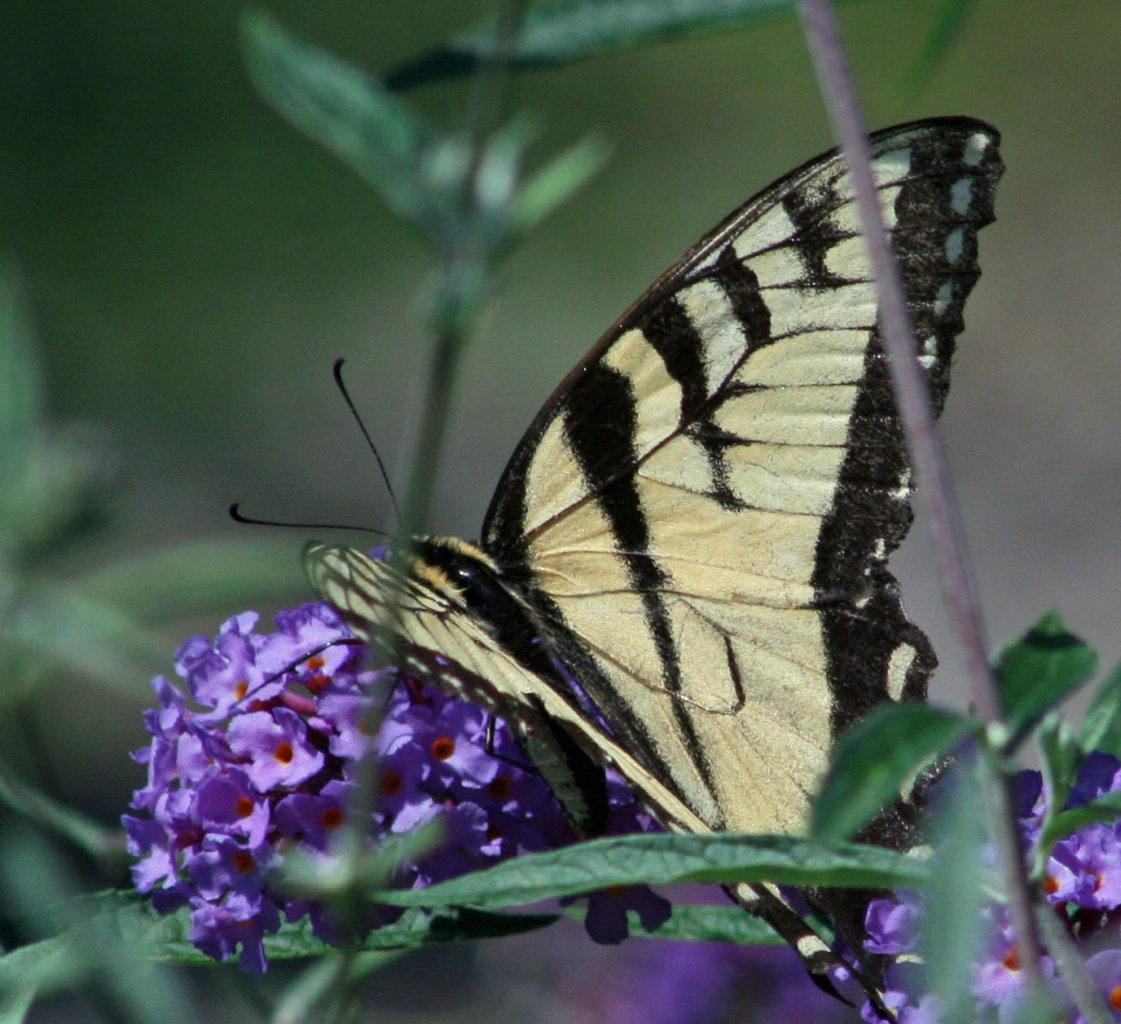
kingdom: Animalia
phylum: Arthropoda
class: Insecta
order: Lepidoptera
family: Papilionidae
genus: Pterourus
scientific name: Pterourus glaucus
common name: Eastern Tiger Swallowtail
